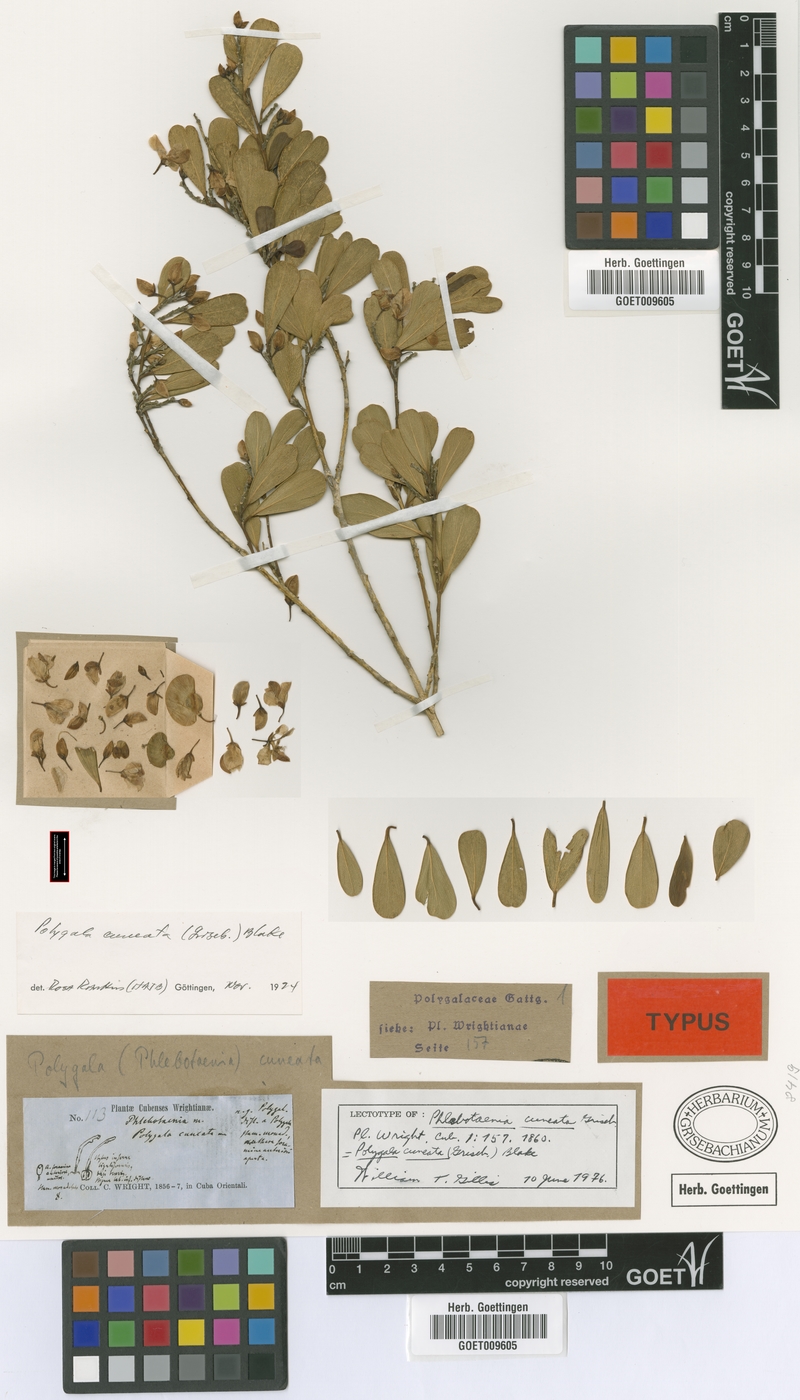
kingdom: Plantae
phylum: Tracheophyta
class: Magnoliopsida
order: Fabales
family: Polygalaceae
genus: Phlebotaenia
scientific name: Phlebotaenia cuneata
